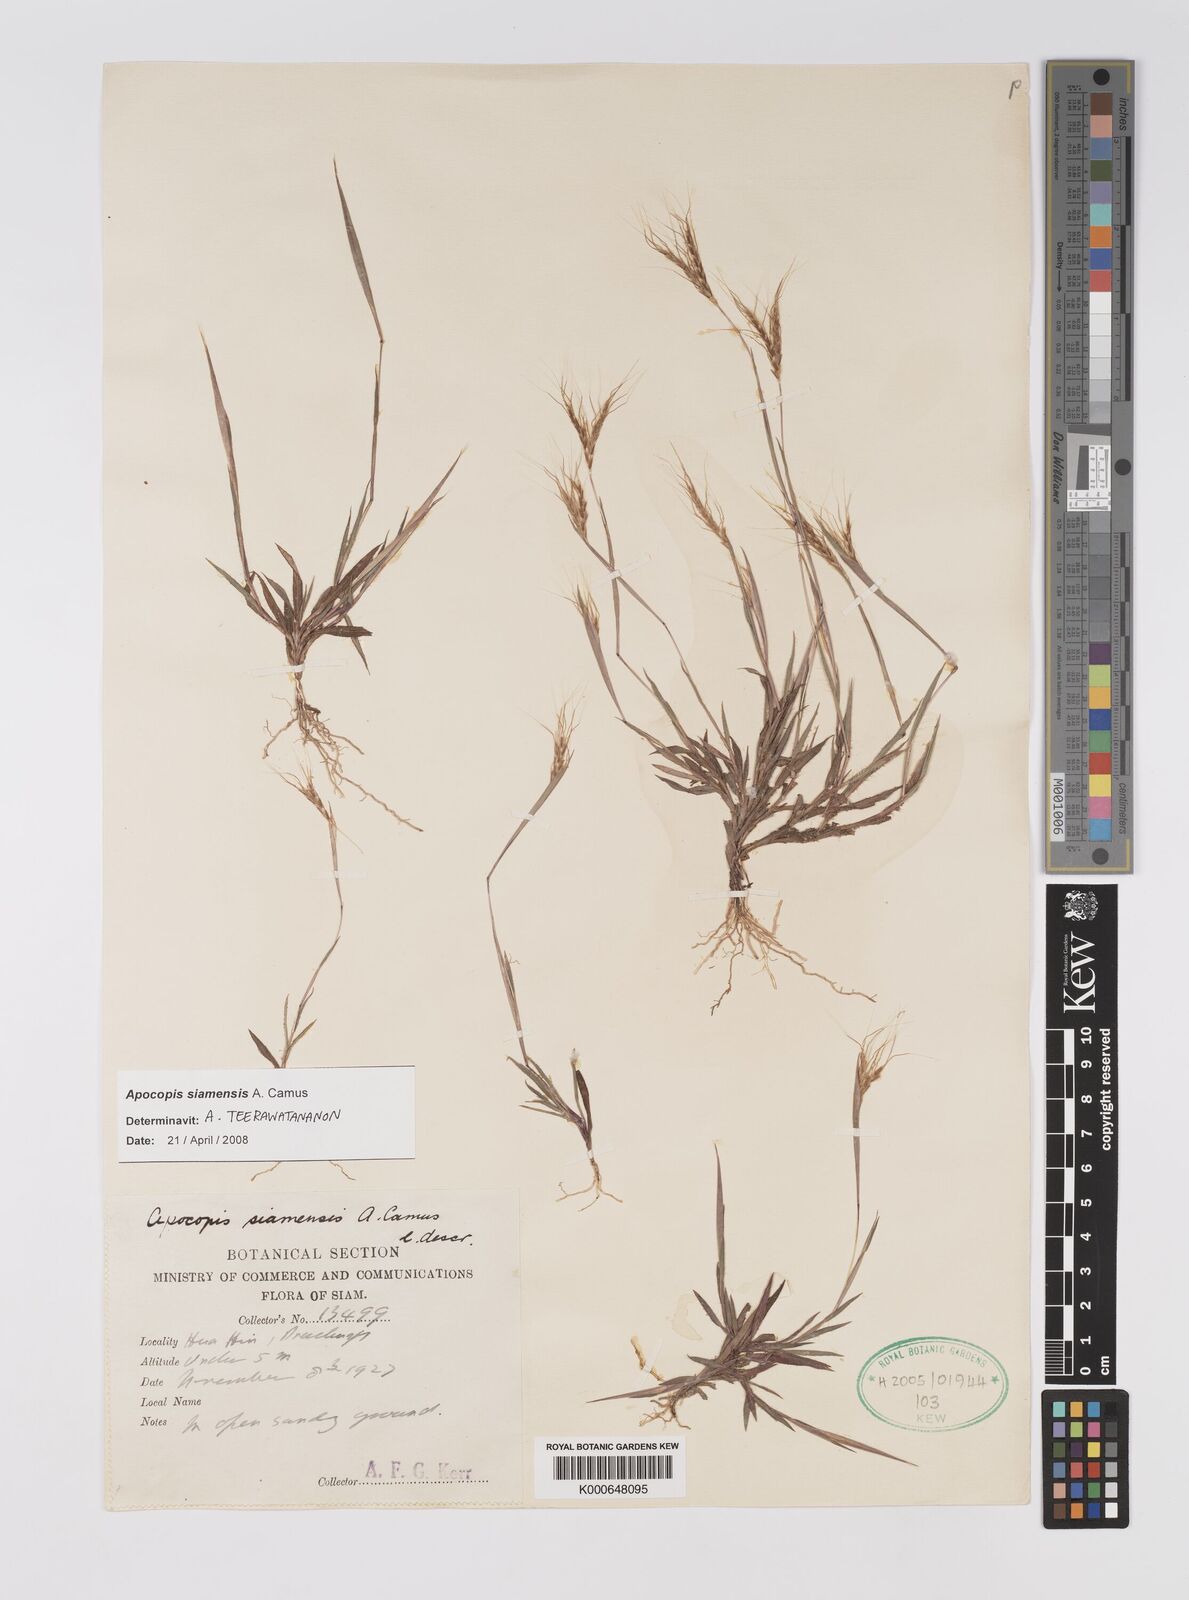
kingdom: Plantae
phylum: Tracheophyta
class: Liliopsida
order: Poales
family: Poaceae
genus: Apocopis
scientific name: Apocopis siamensis
